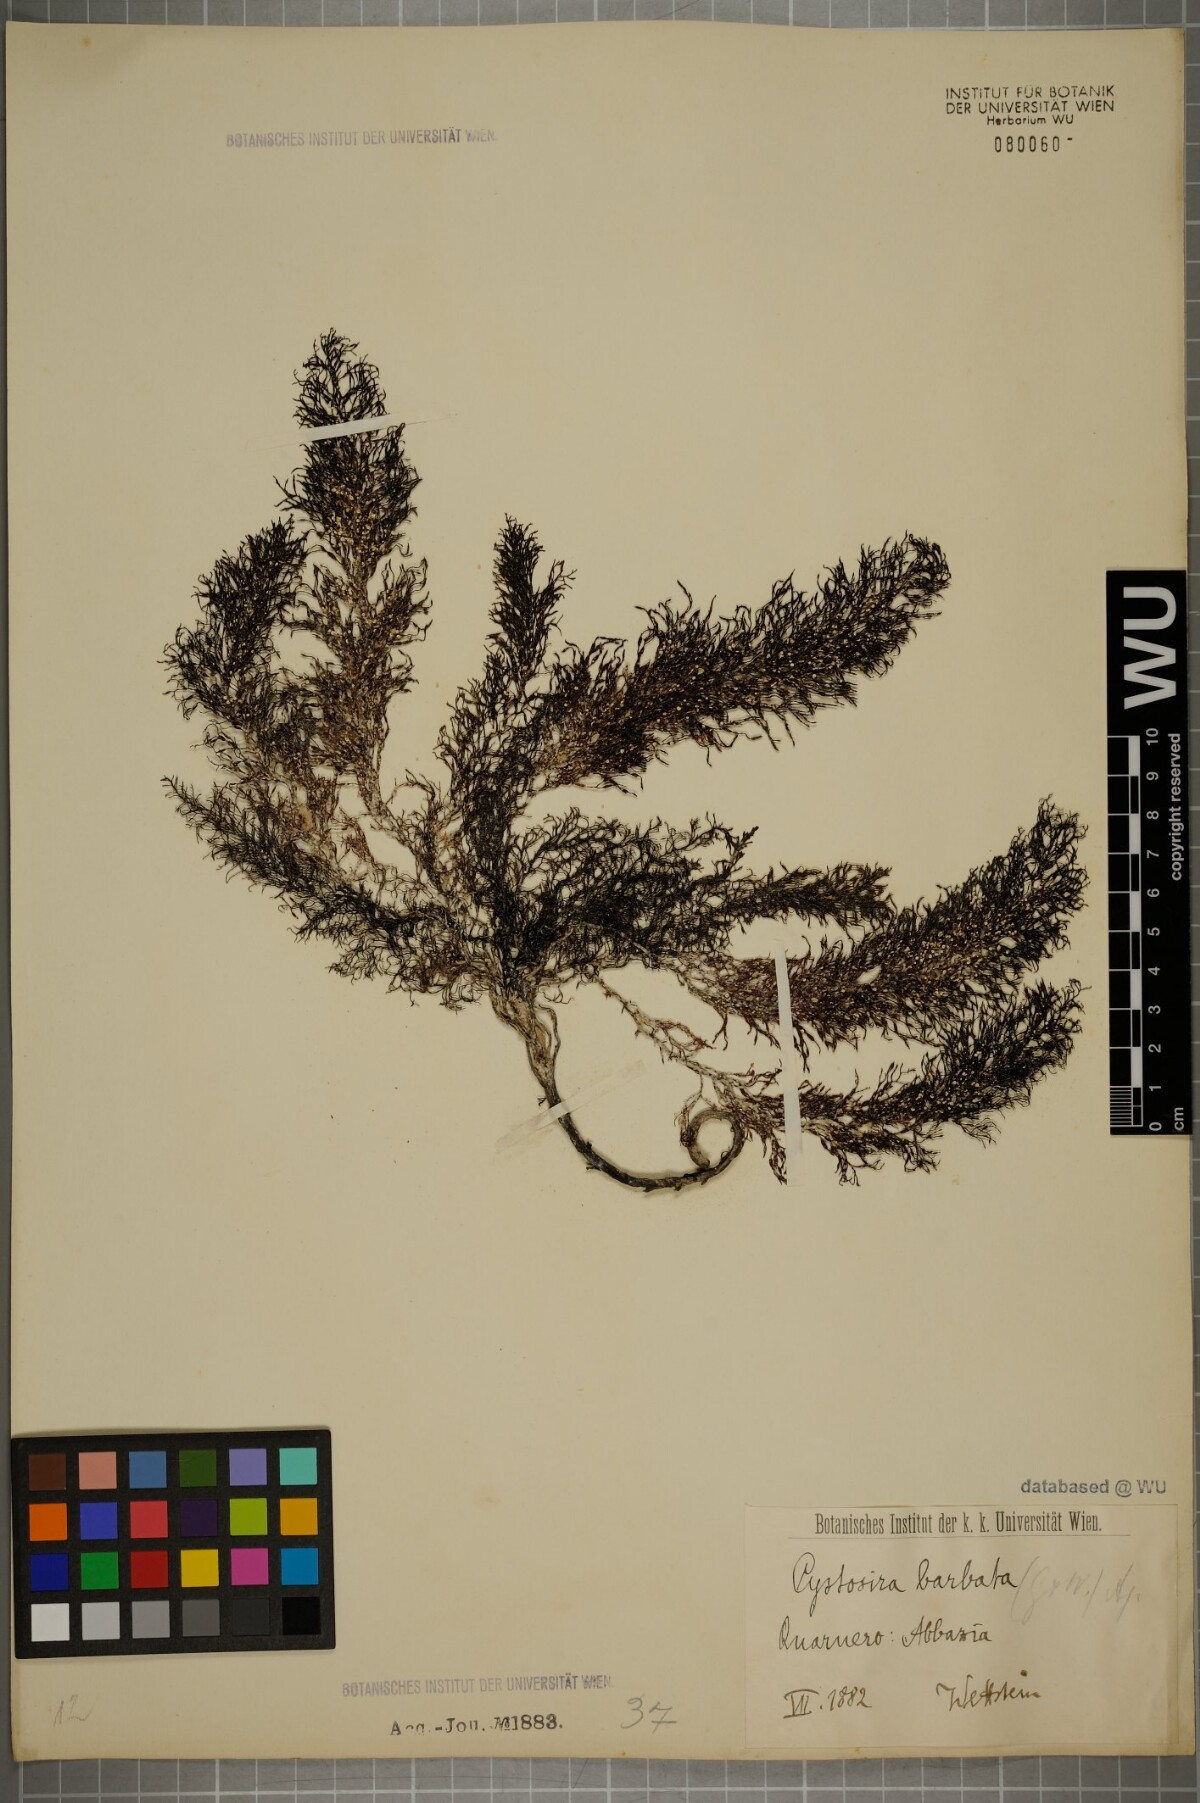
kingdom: Chromista
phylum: Ochrophyta
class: Phaeophyceae
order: Fucales
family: Sargassaceae
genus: Cystoseira
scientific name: Cystoseira Gongolaria barbata
